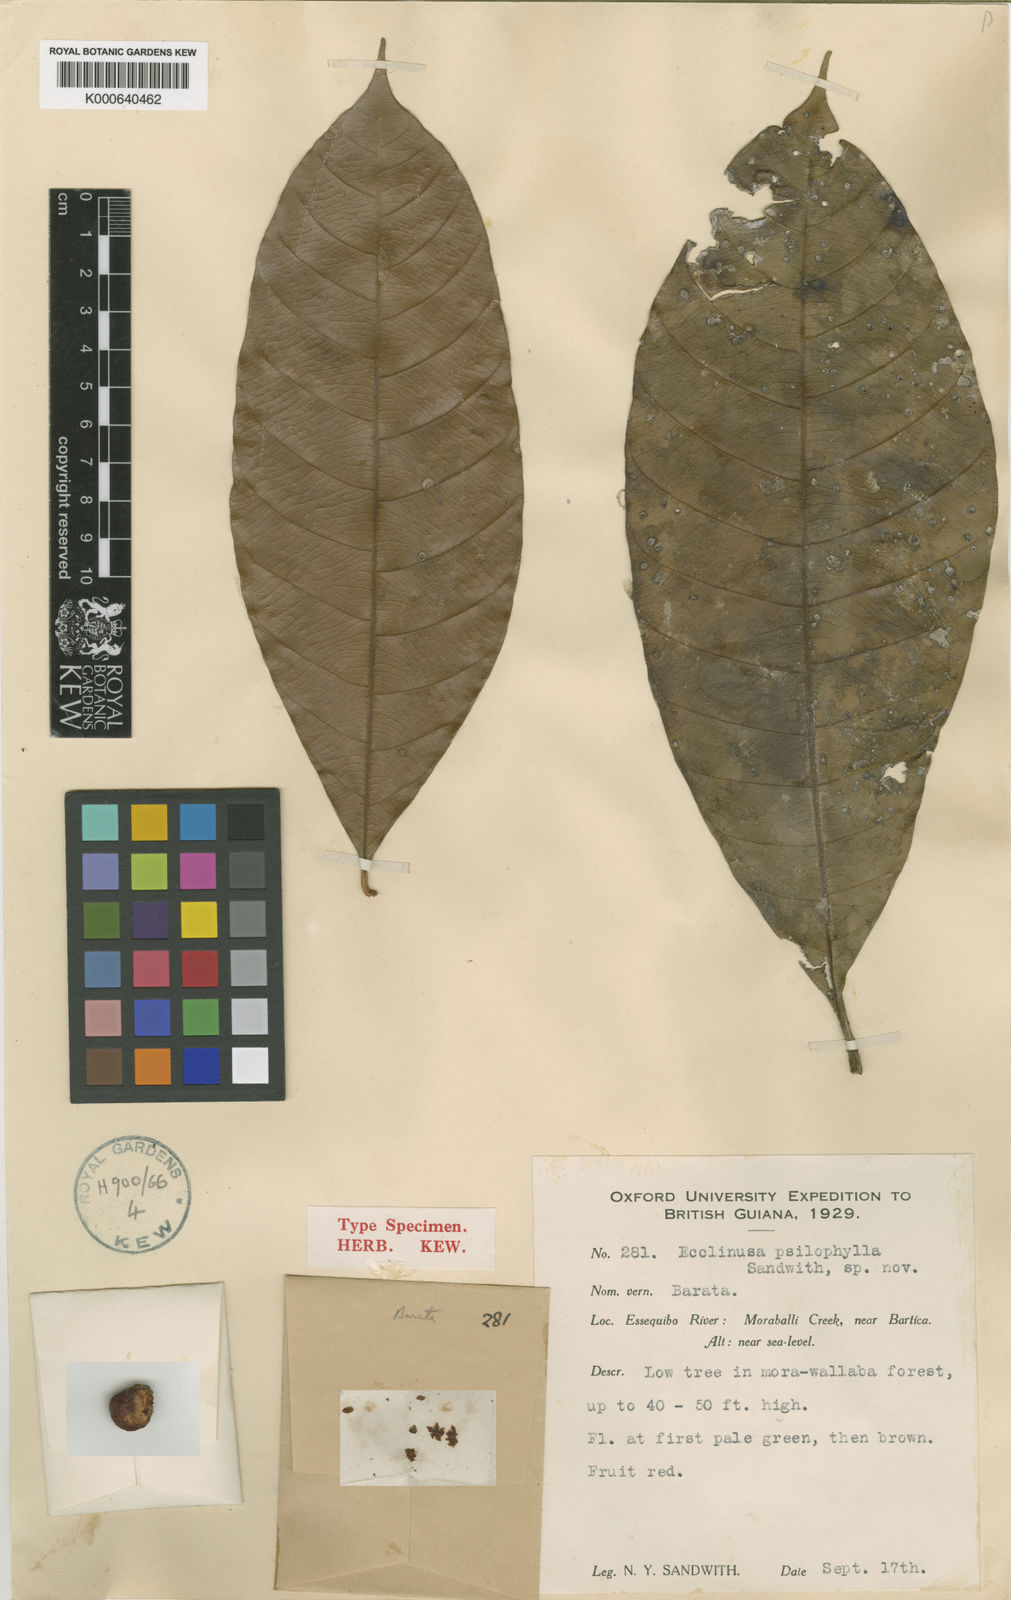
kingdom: Plantae
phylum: Tracheophyta
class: Magnoliopsida
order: Ericales
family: Sapotaceae
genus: Ecclinusa
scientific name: Ecclinusa psilophylla
